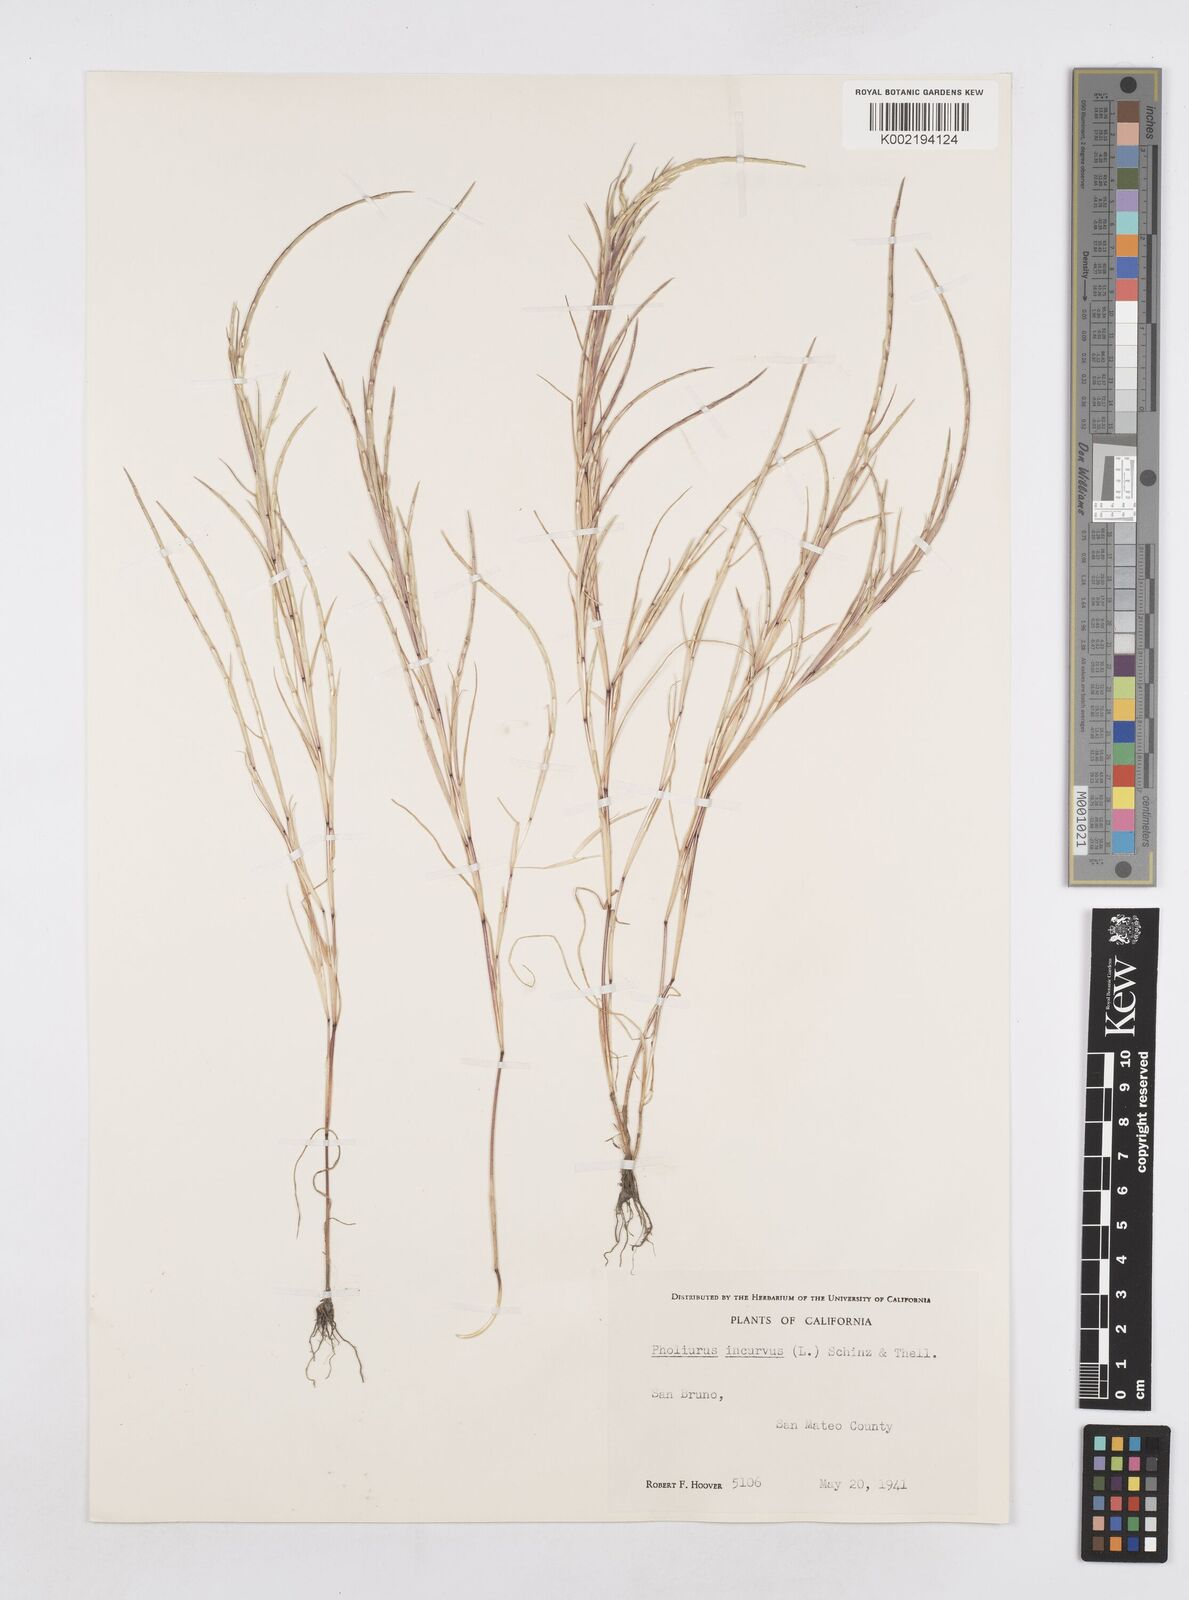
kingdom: Plantae
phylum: Tracheophyta
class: Liliopsida
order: Poales
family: Poaceae
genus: Parapholis
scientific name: Parapholis incurva
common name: Curved sicklegrass
